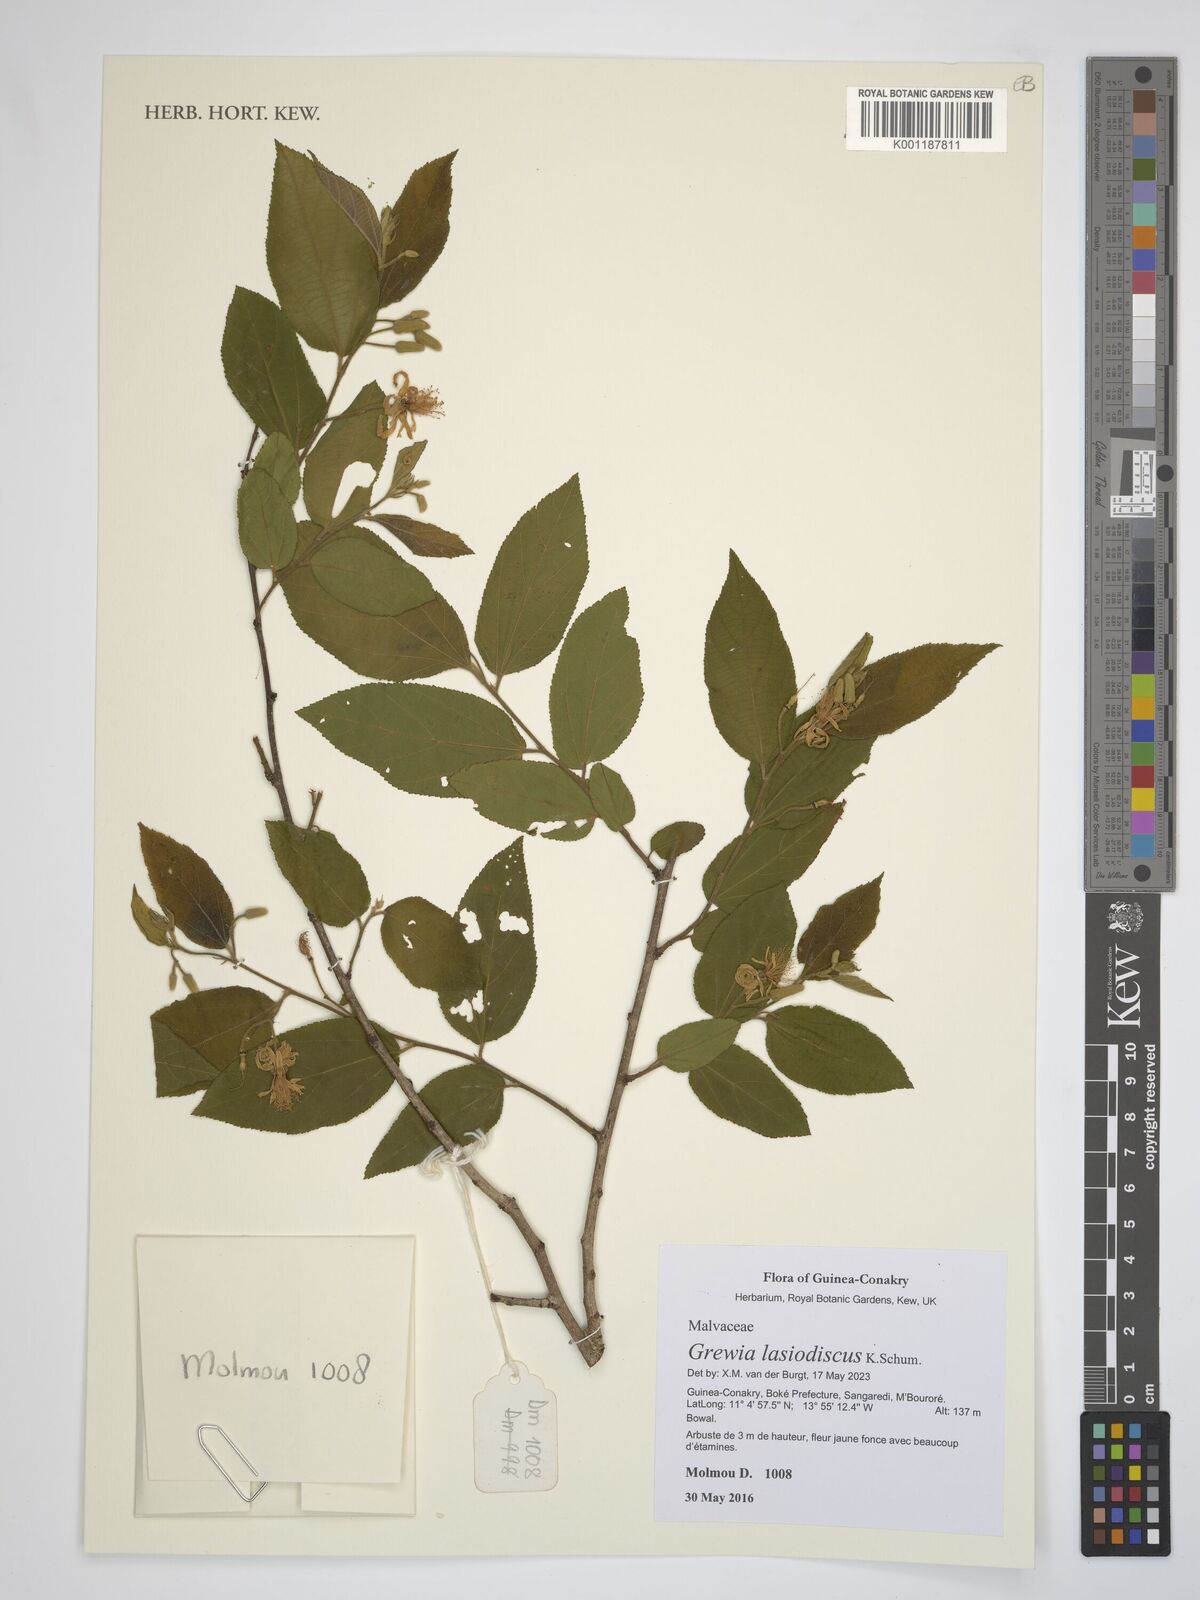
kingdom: Plantae
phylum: Tracheophyta
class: Magnoliopsida
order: Malvales
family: Malvaceae
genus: Grewia
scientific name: Grewia lasiodiscus
